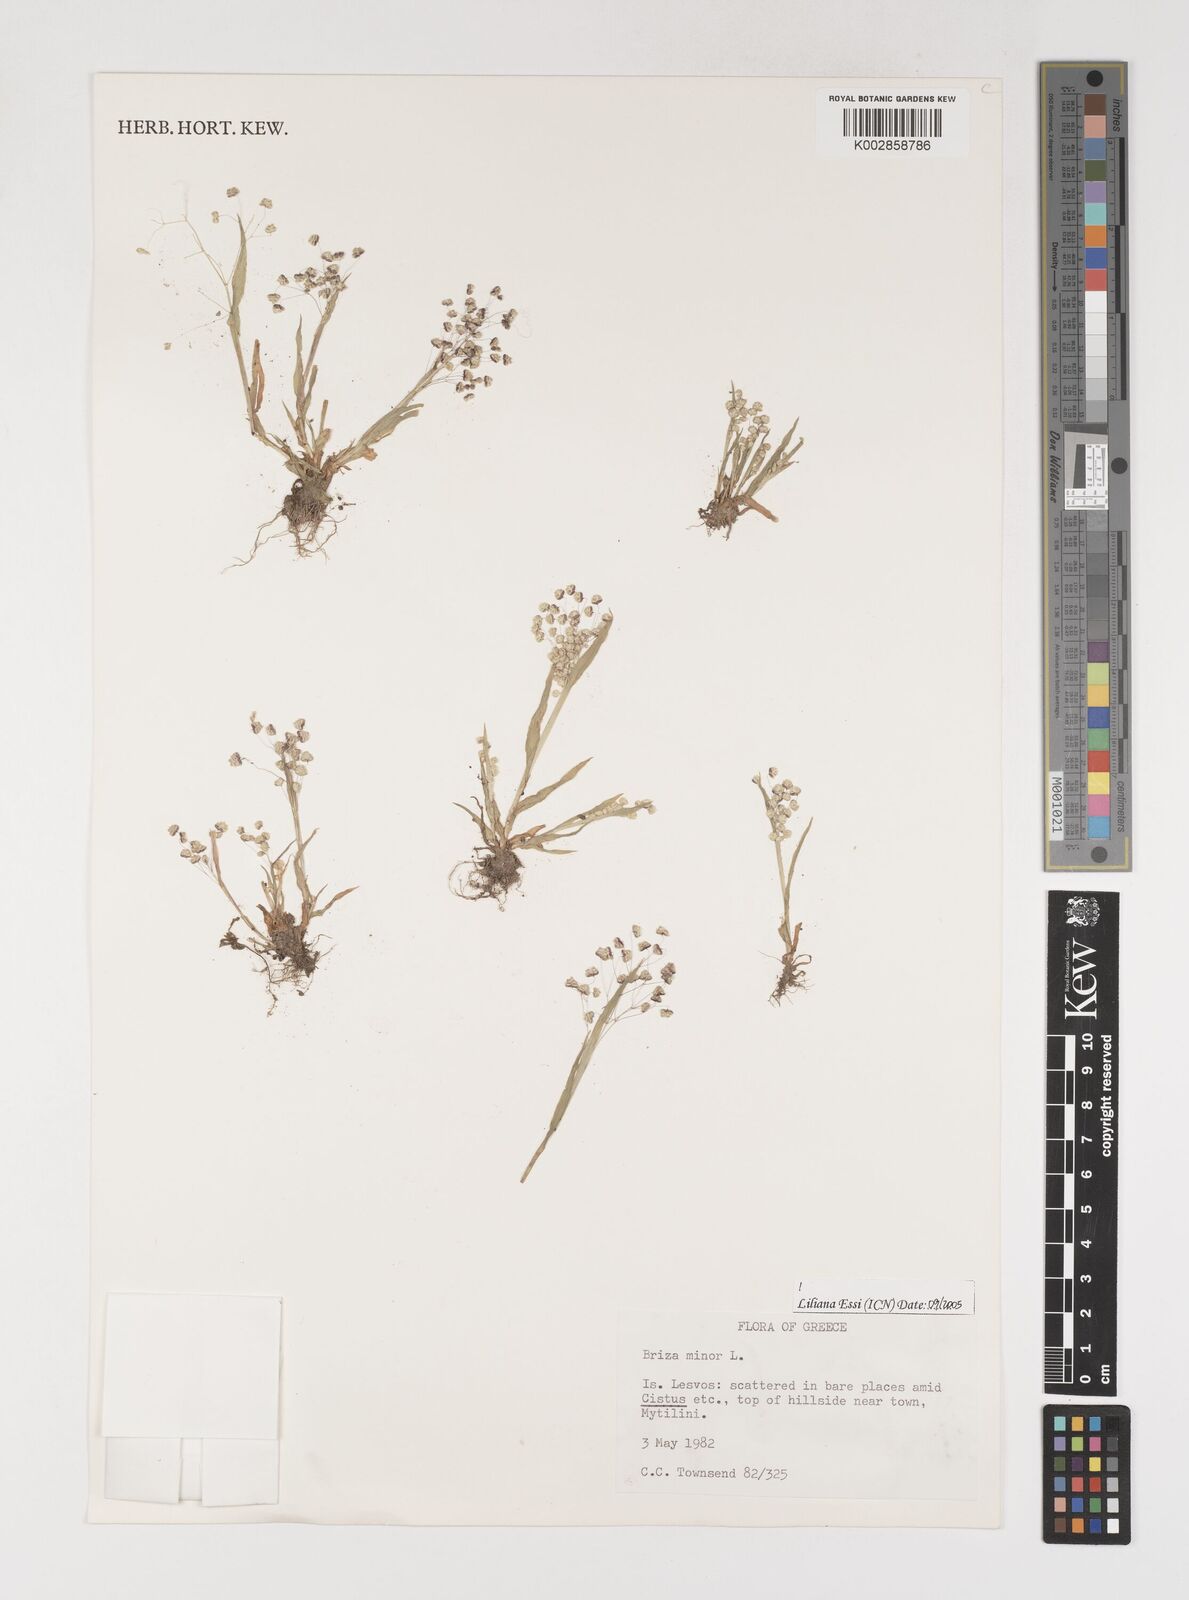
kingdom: Plantae
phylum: Tracheophyta
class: Liliopsida
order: Poales
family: Poaceae
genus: Briza
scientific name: Briza minor
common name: Lesser quaking-grass
